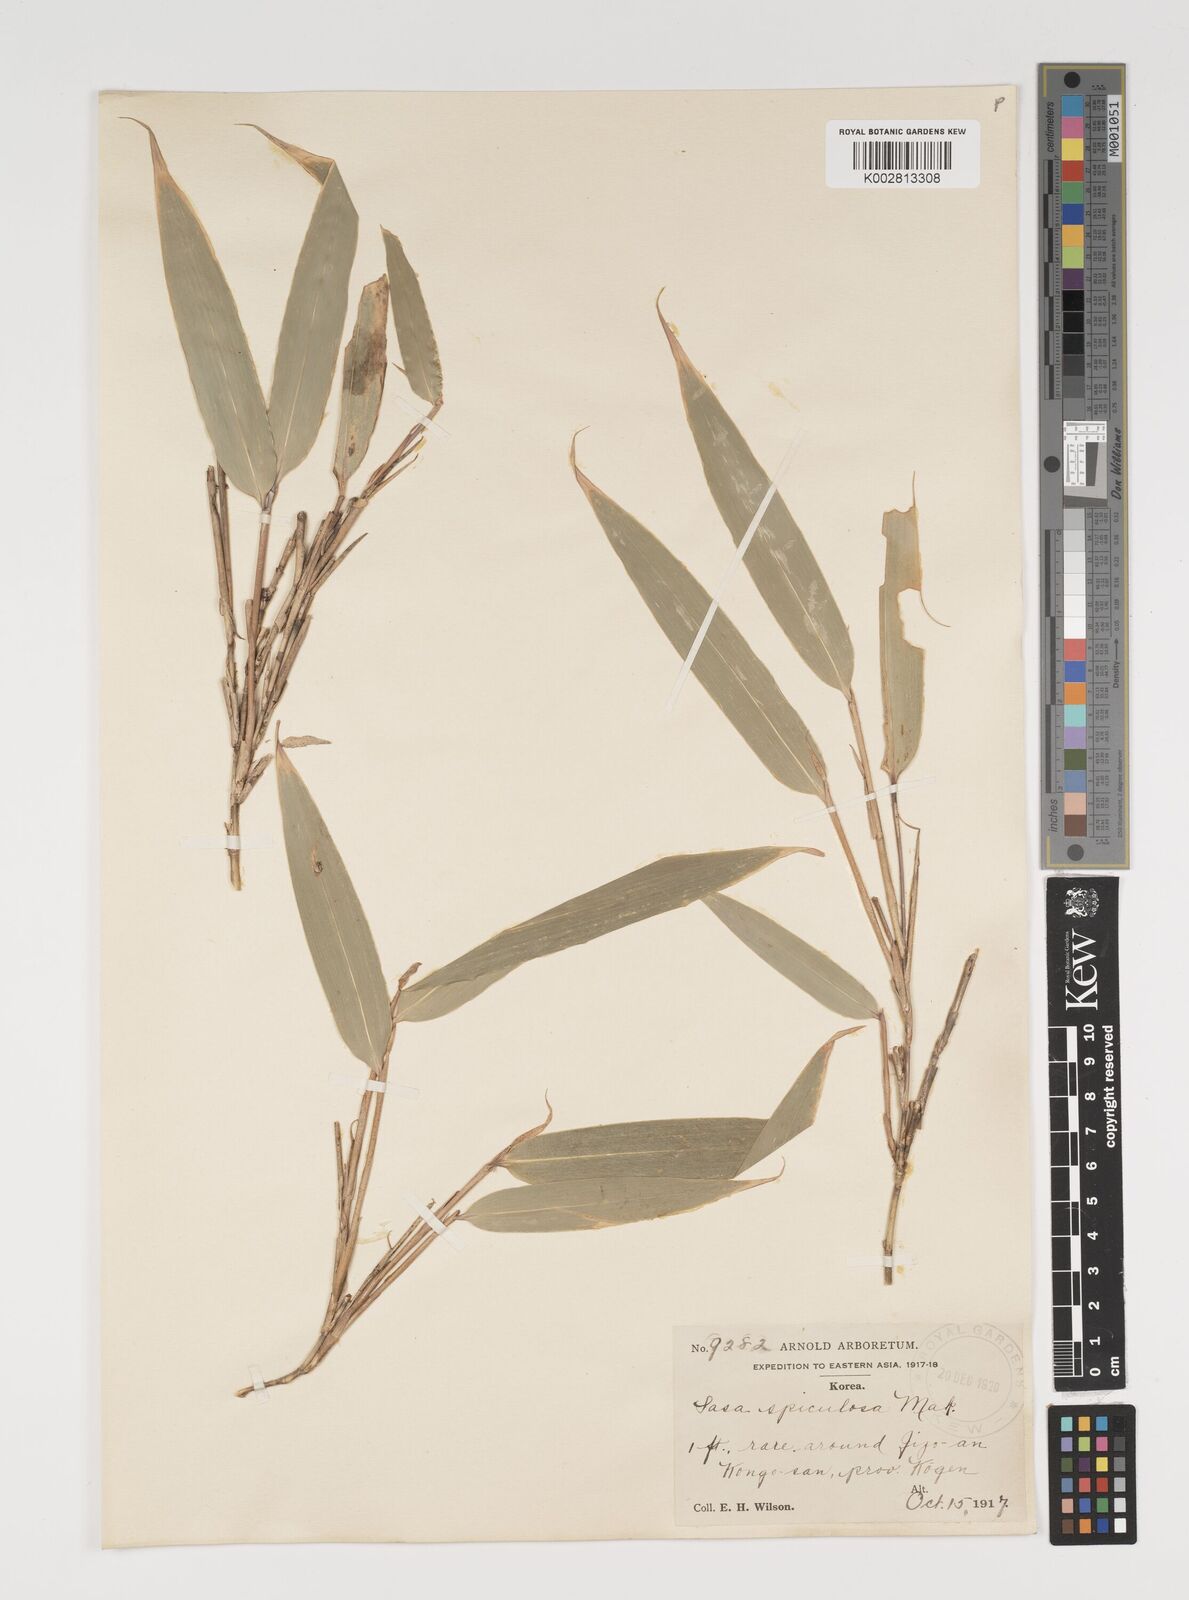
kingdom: Plantae
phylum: Tracheophyta
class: Liliopsida
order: Poales
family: Poaceae
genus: Sasamorpha
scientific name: Sasamorpha borealis
